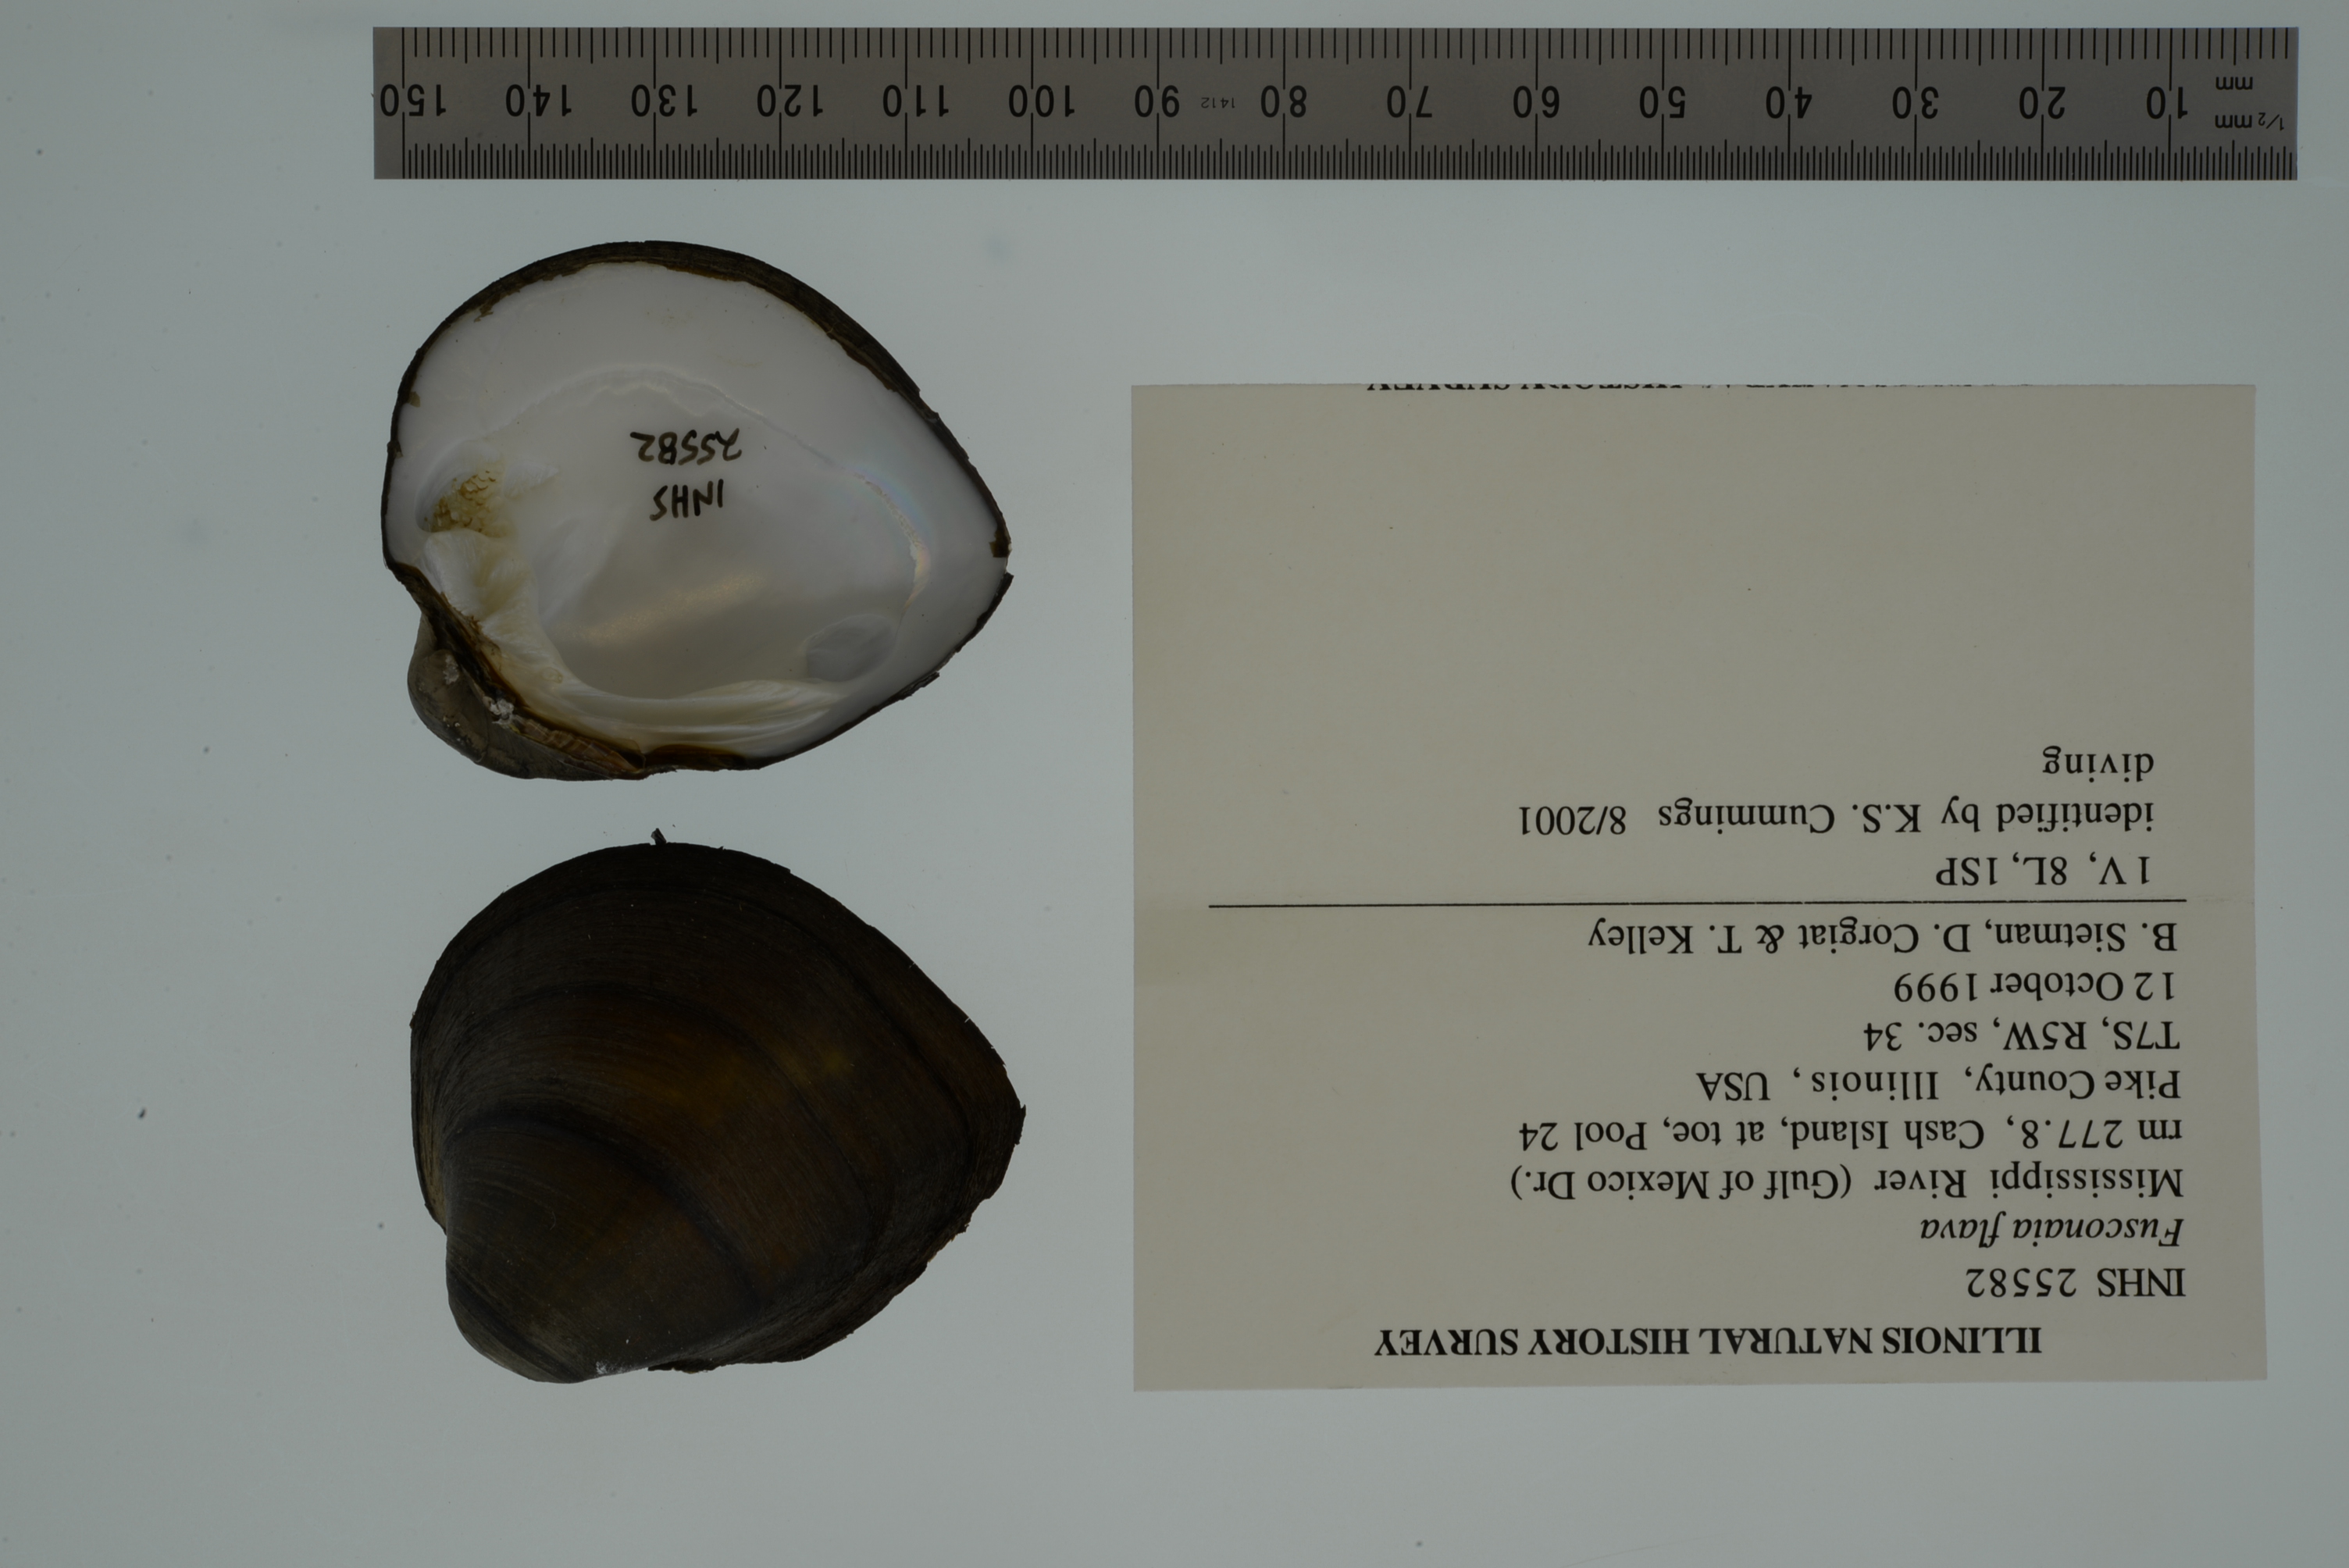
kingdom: Animalia
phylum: Mollusca
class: Bivalvia
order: Unionida
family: Unionidae
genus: Fusconaia
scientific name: Fusconaia flava
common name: Wabash pigtoe
